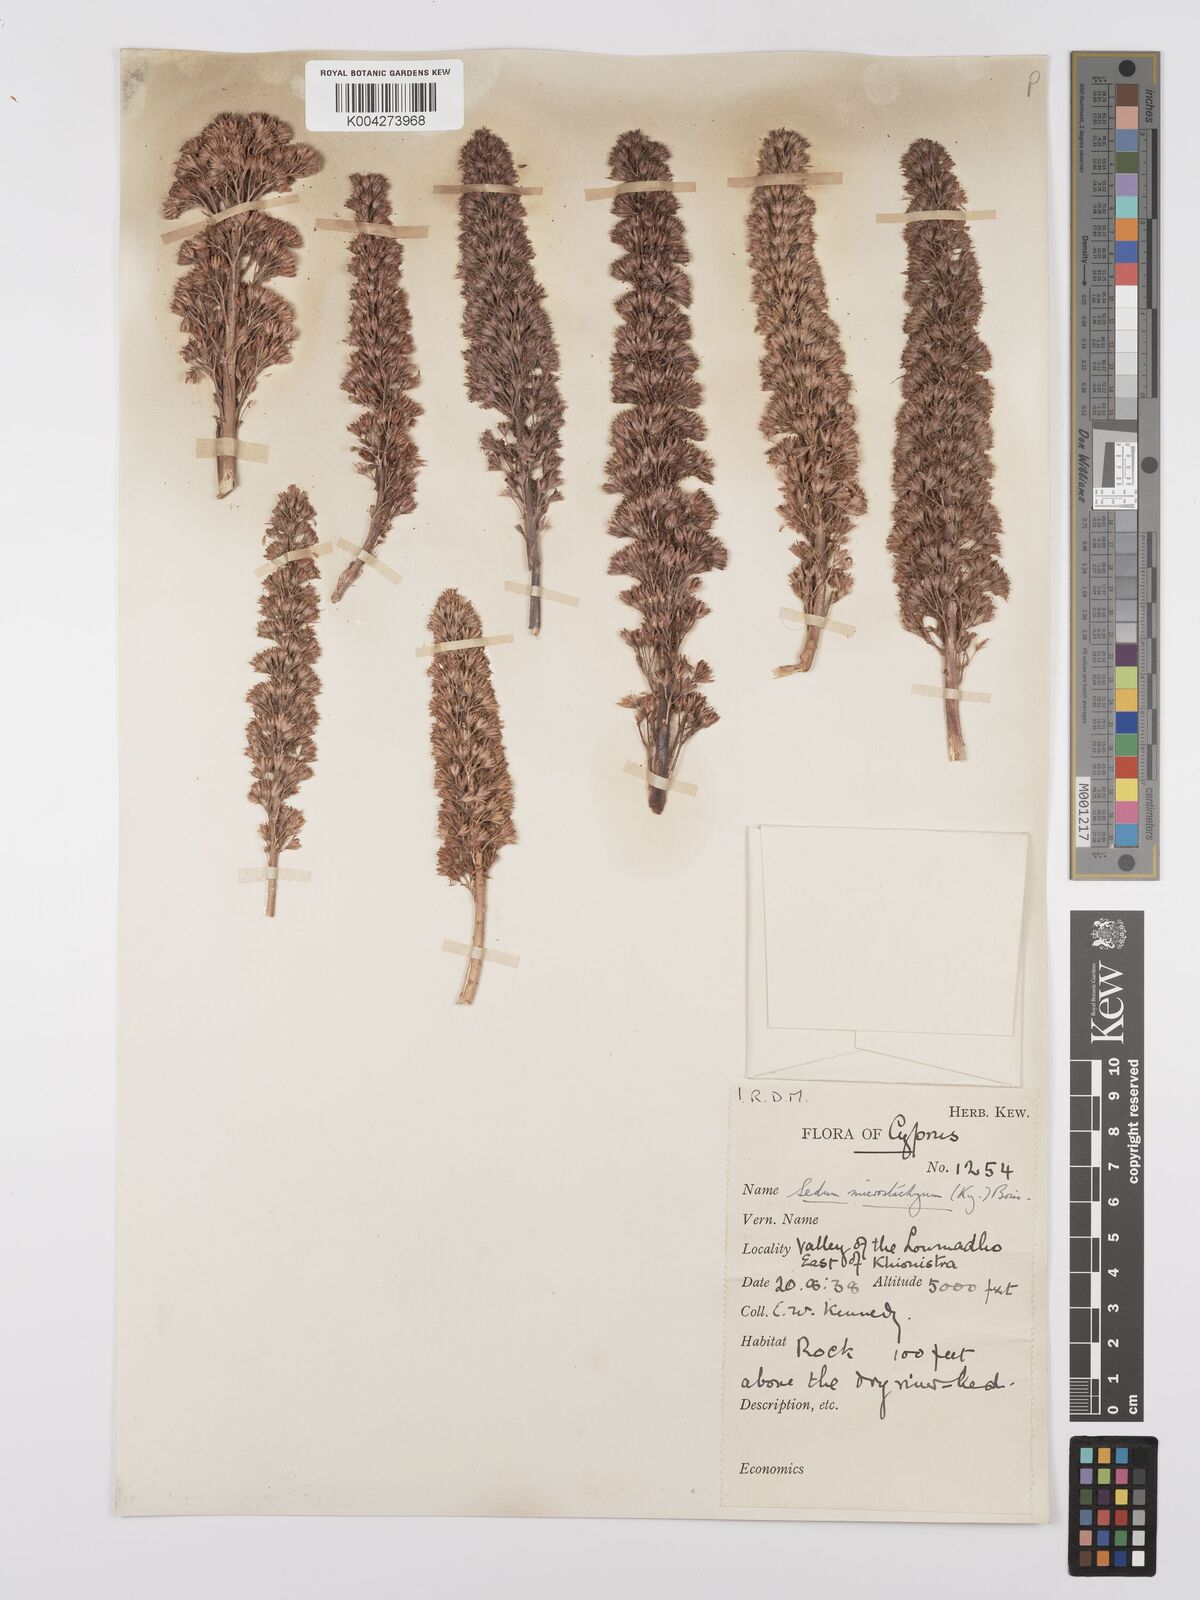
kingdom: Plantae
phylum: Tracheophyta
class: Magnoliopsida
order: Saxifragales
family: Crassulaceae
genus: Sedum
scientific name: Sedum microstachyum
